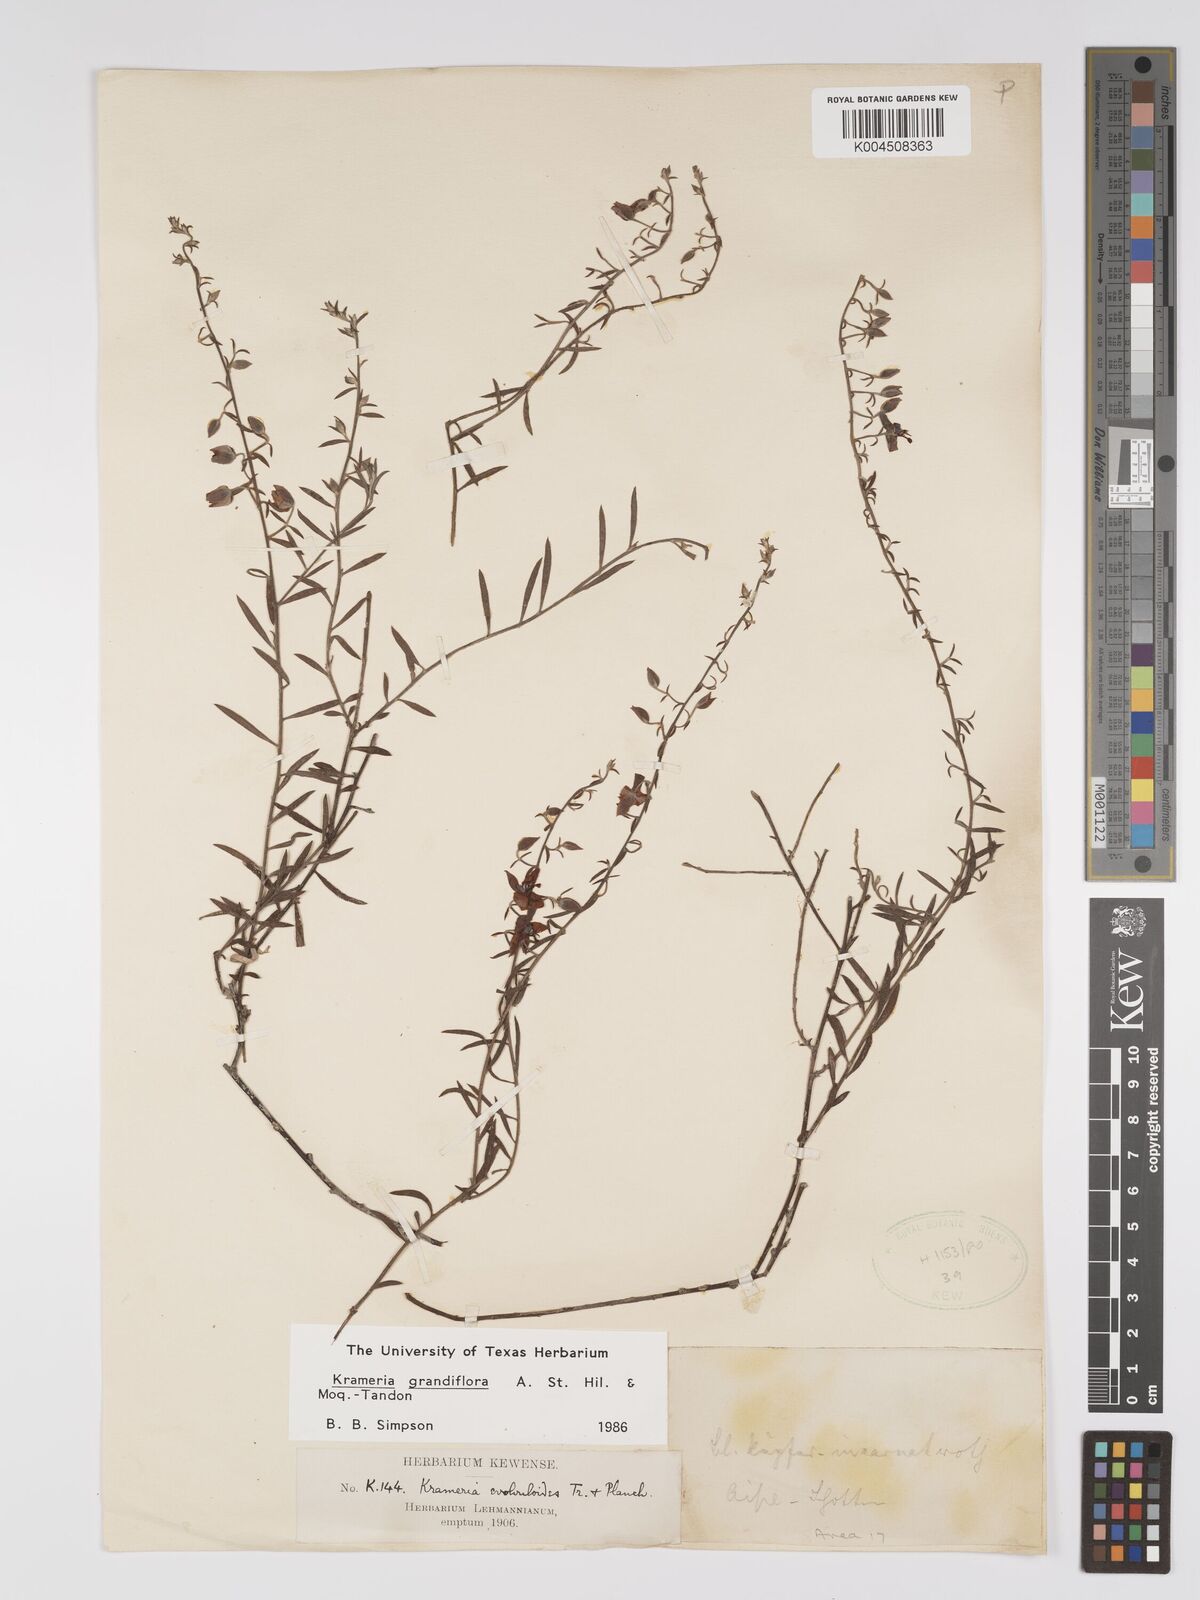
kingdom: Plantae
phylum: Tracheophyta
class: Magnoliopsida
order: Zygophyllales
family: Krameriaceae
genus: Krameria
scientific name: Krameria grandiflora
